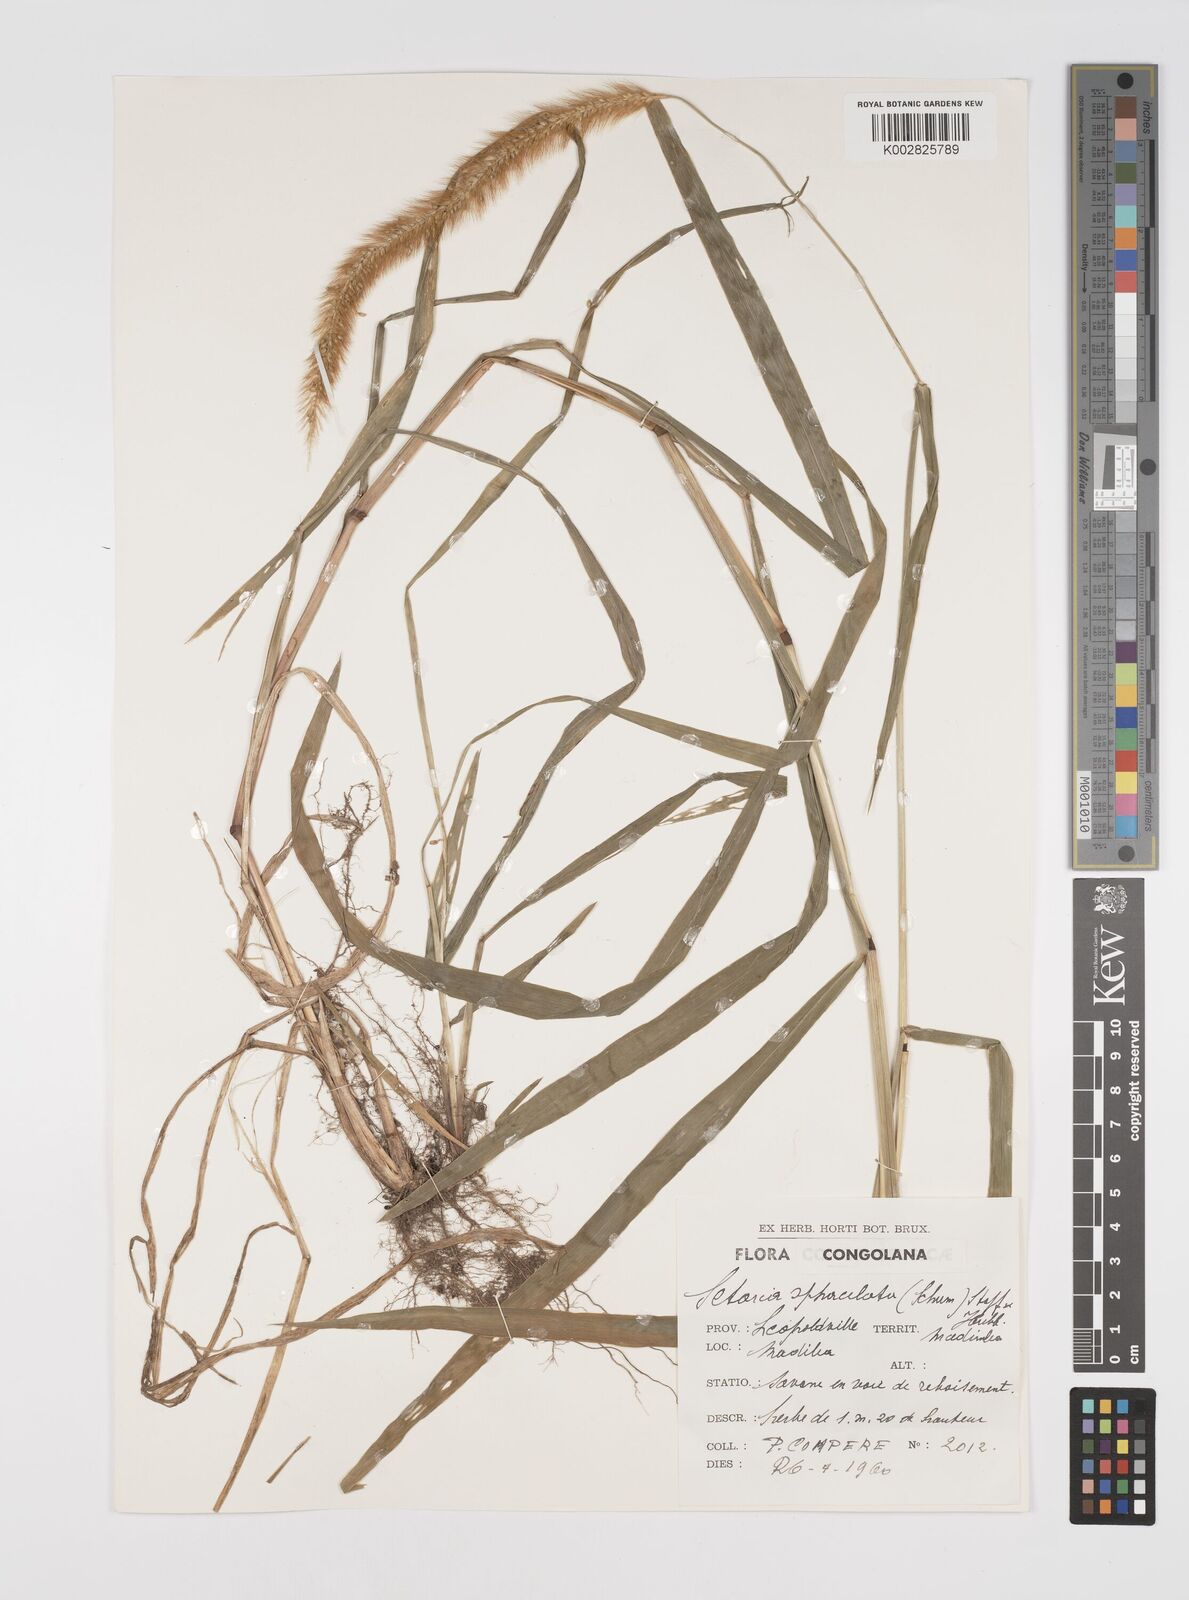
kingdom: Plantae
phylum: Tracheophyta
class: Liliopsida
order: Poales
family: Poaceae
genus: Setaria
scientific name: Setaria sphacelata
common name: African bristlegrass
